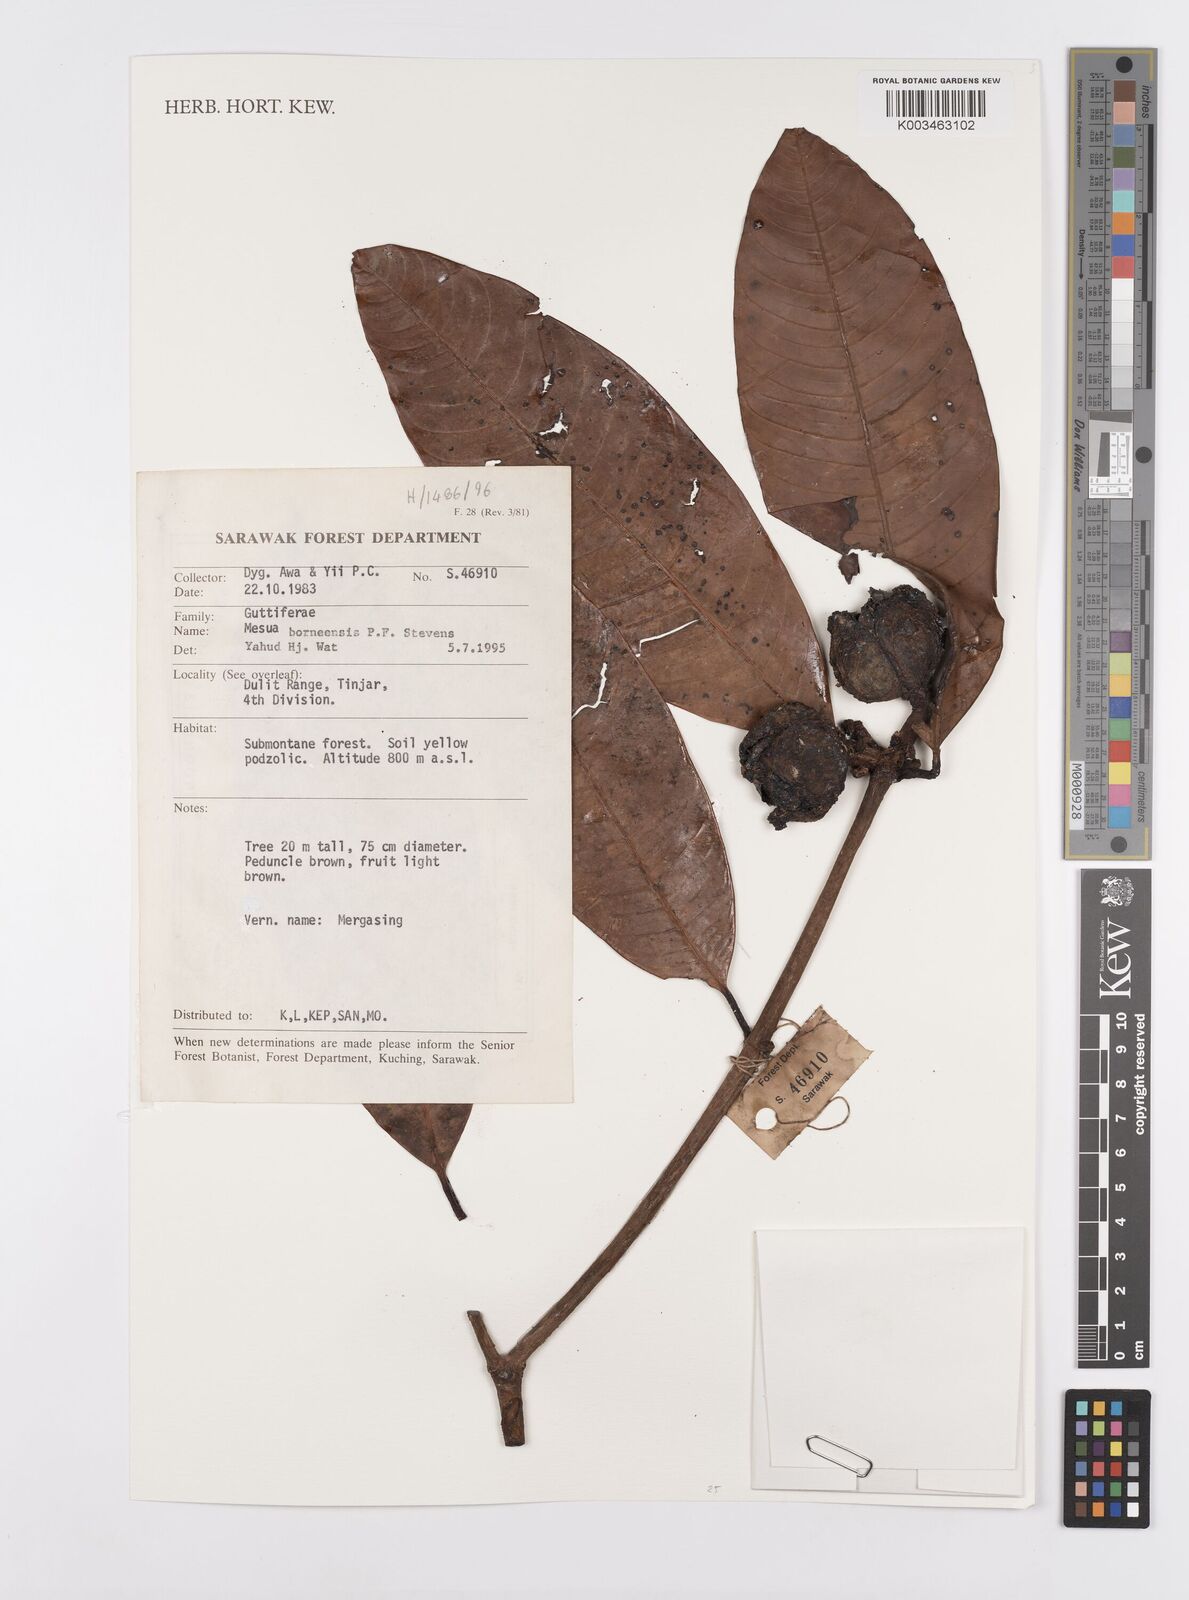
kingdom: Plantae
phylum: Tracheophyta
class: Magnoliopsida
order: Malpighiales
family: Calophyllaceae
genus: Kayea
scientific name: Kayea borneensis
